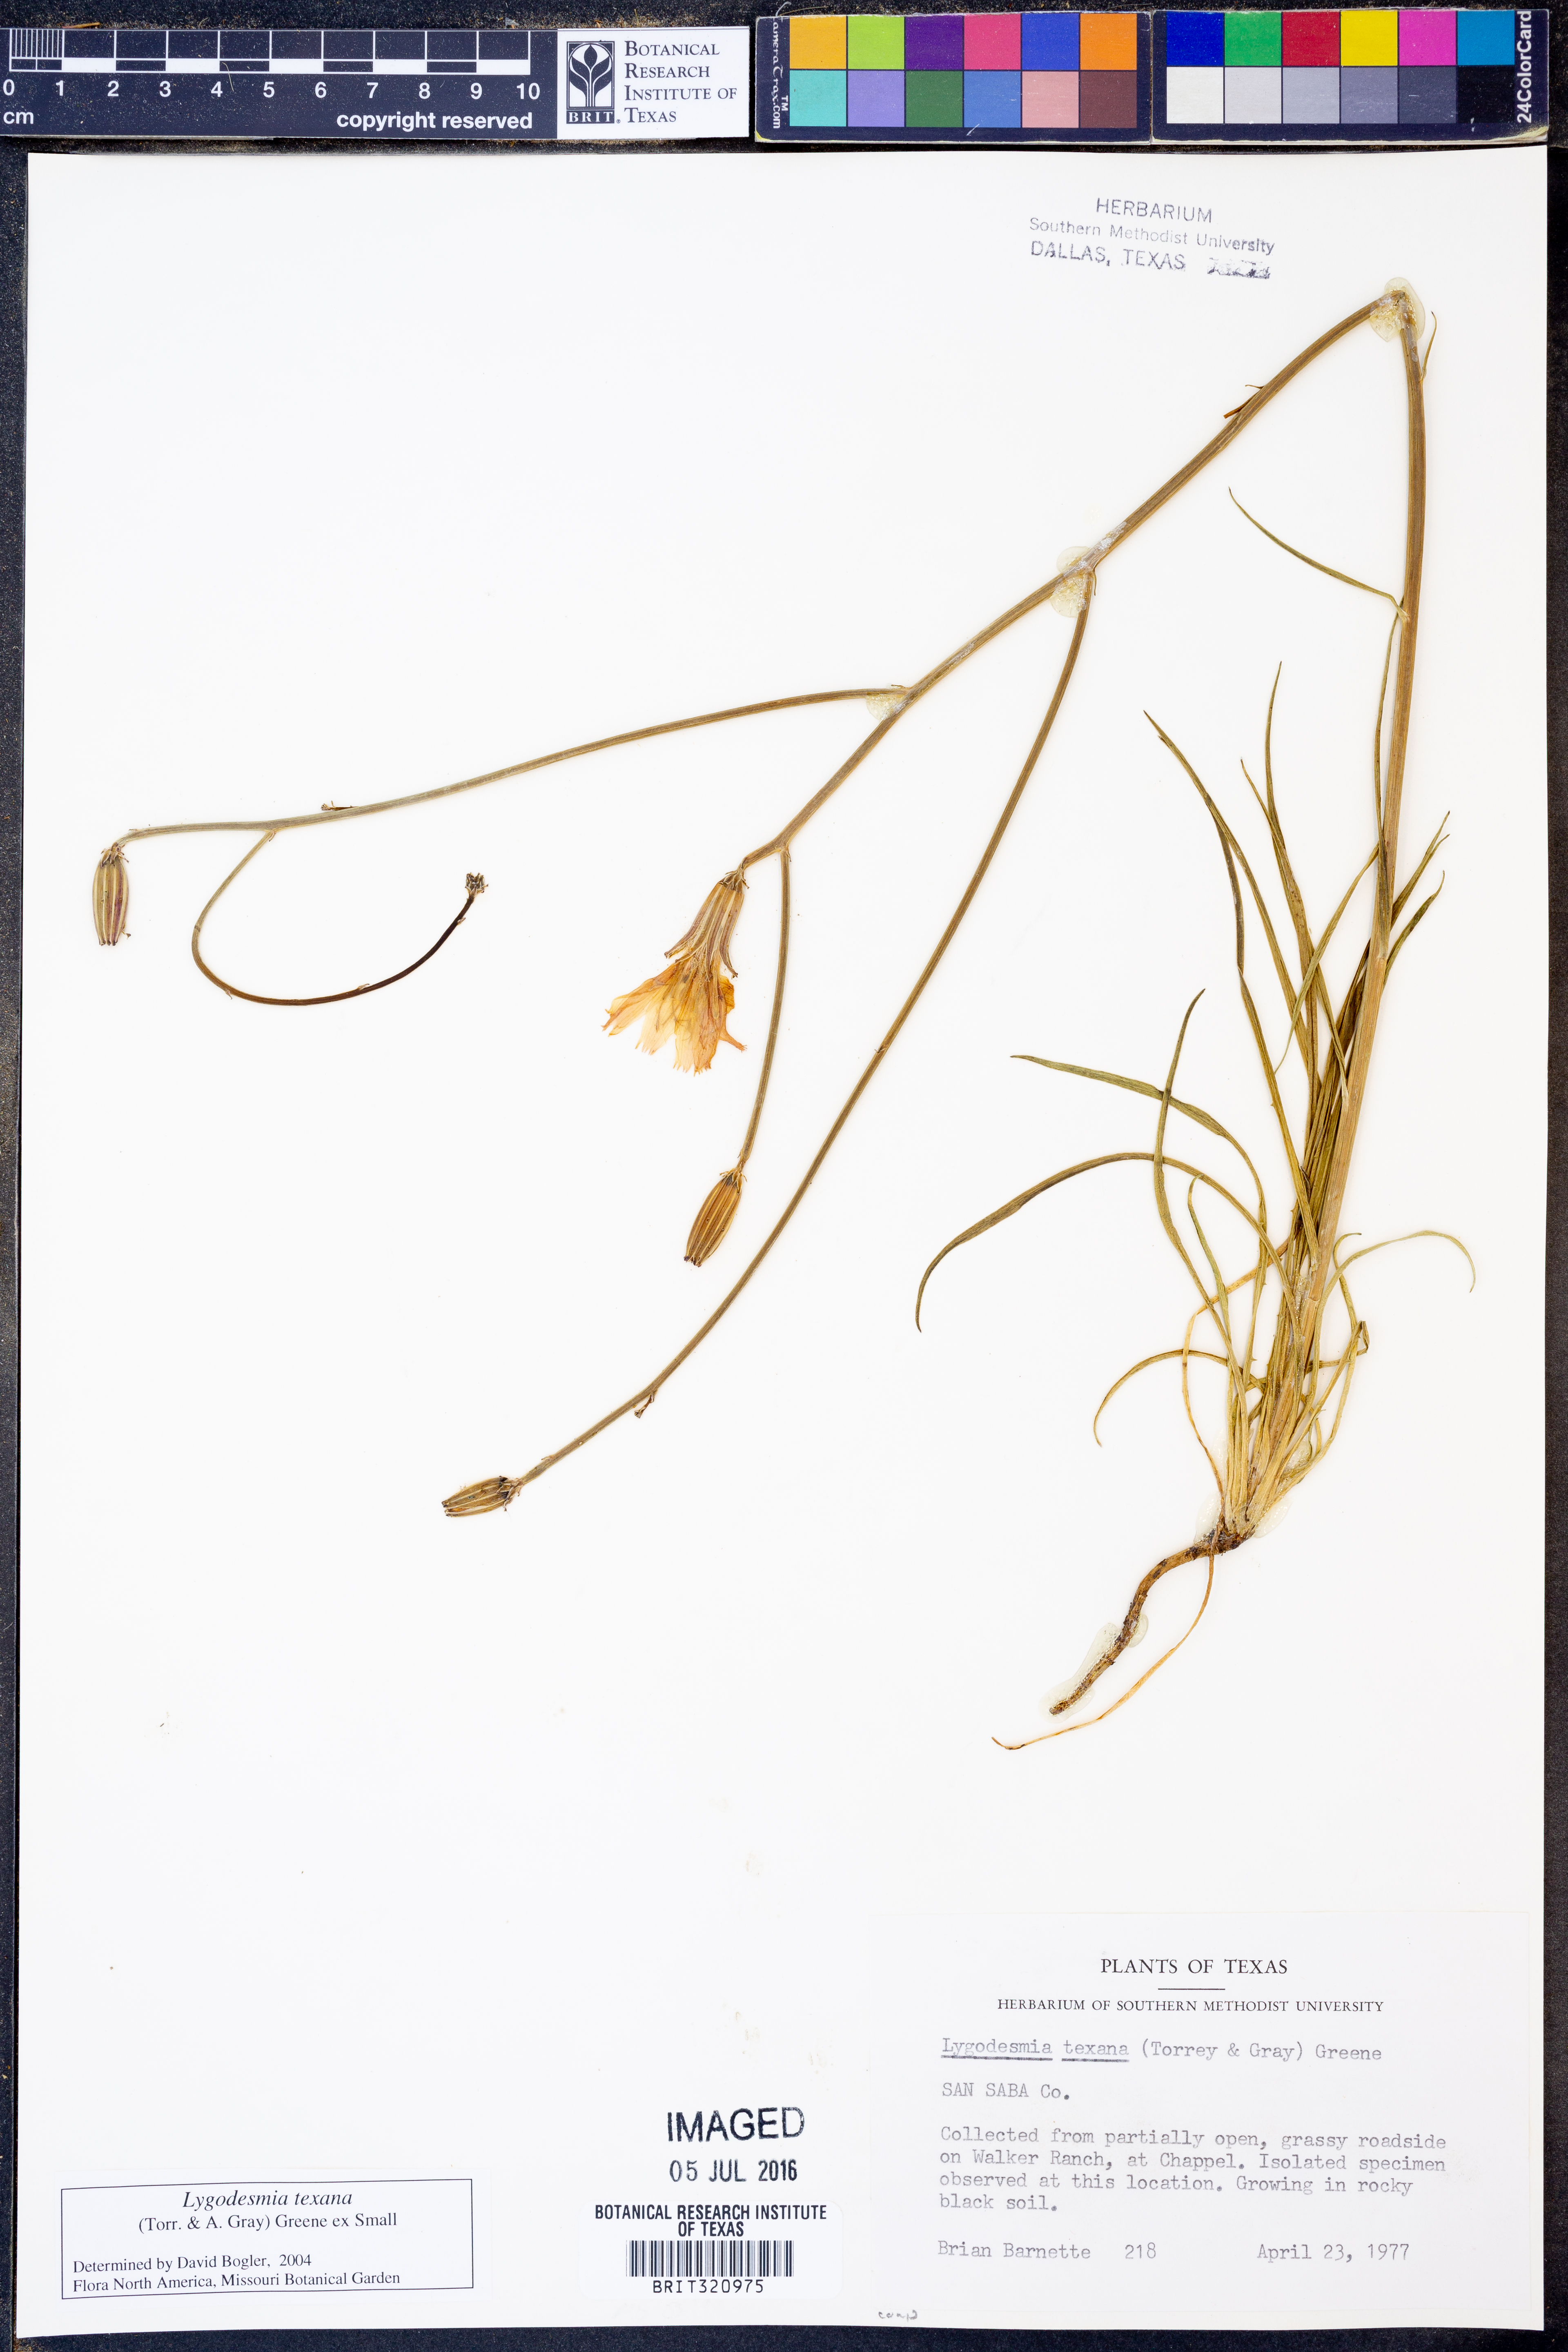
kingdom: Plantae
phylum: Tracheophyta
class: Magnoliopsida
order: Asterales
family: Asteraceae
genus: Lygodesmia
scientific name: Lygodesmia texana
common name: Texas skeleton-plant
